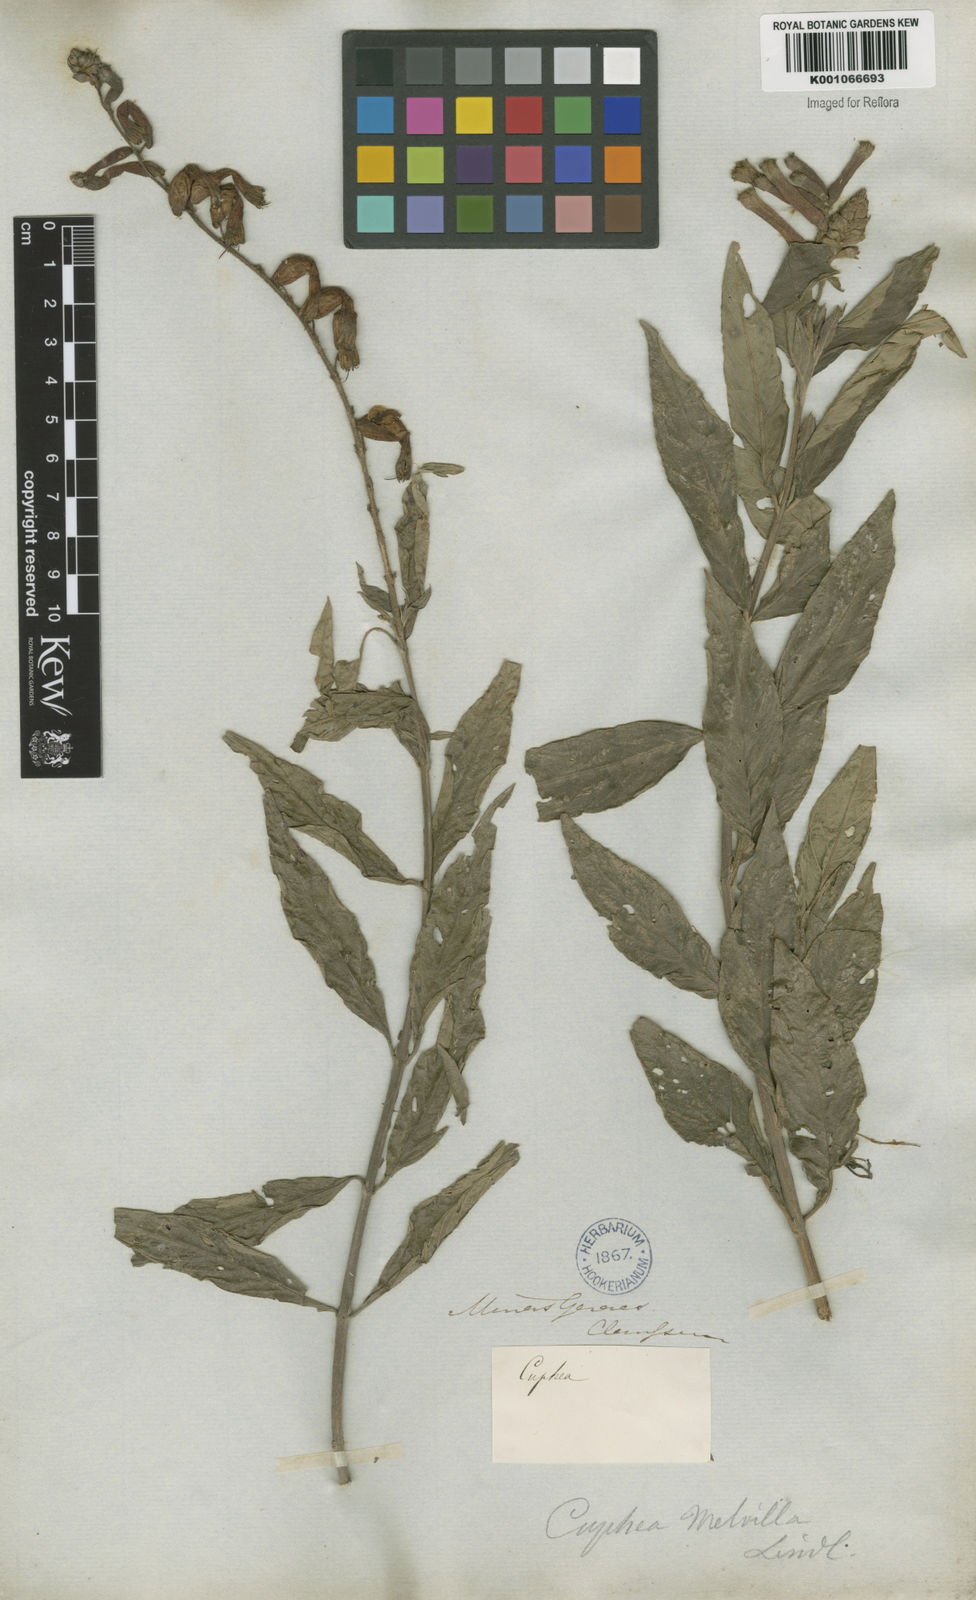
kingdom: Plantae
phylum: Tracheophyta
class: Magnoliopsida
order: Myrtales
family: Lythraceae
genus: Cuphea
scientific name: Cuphea melvilla
